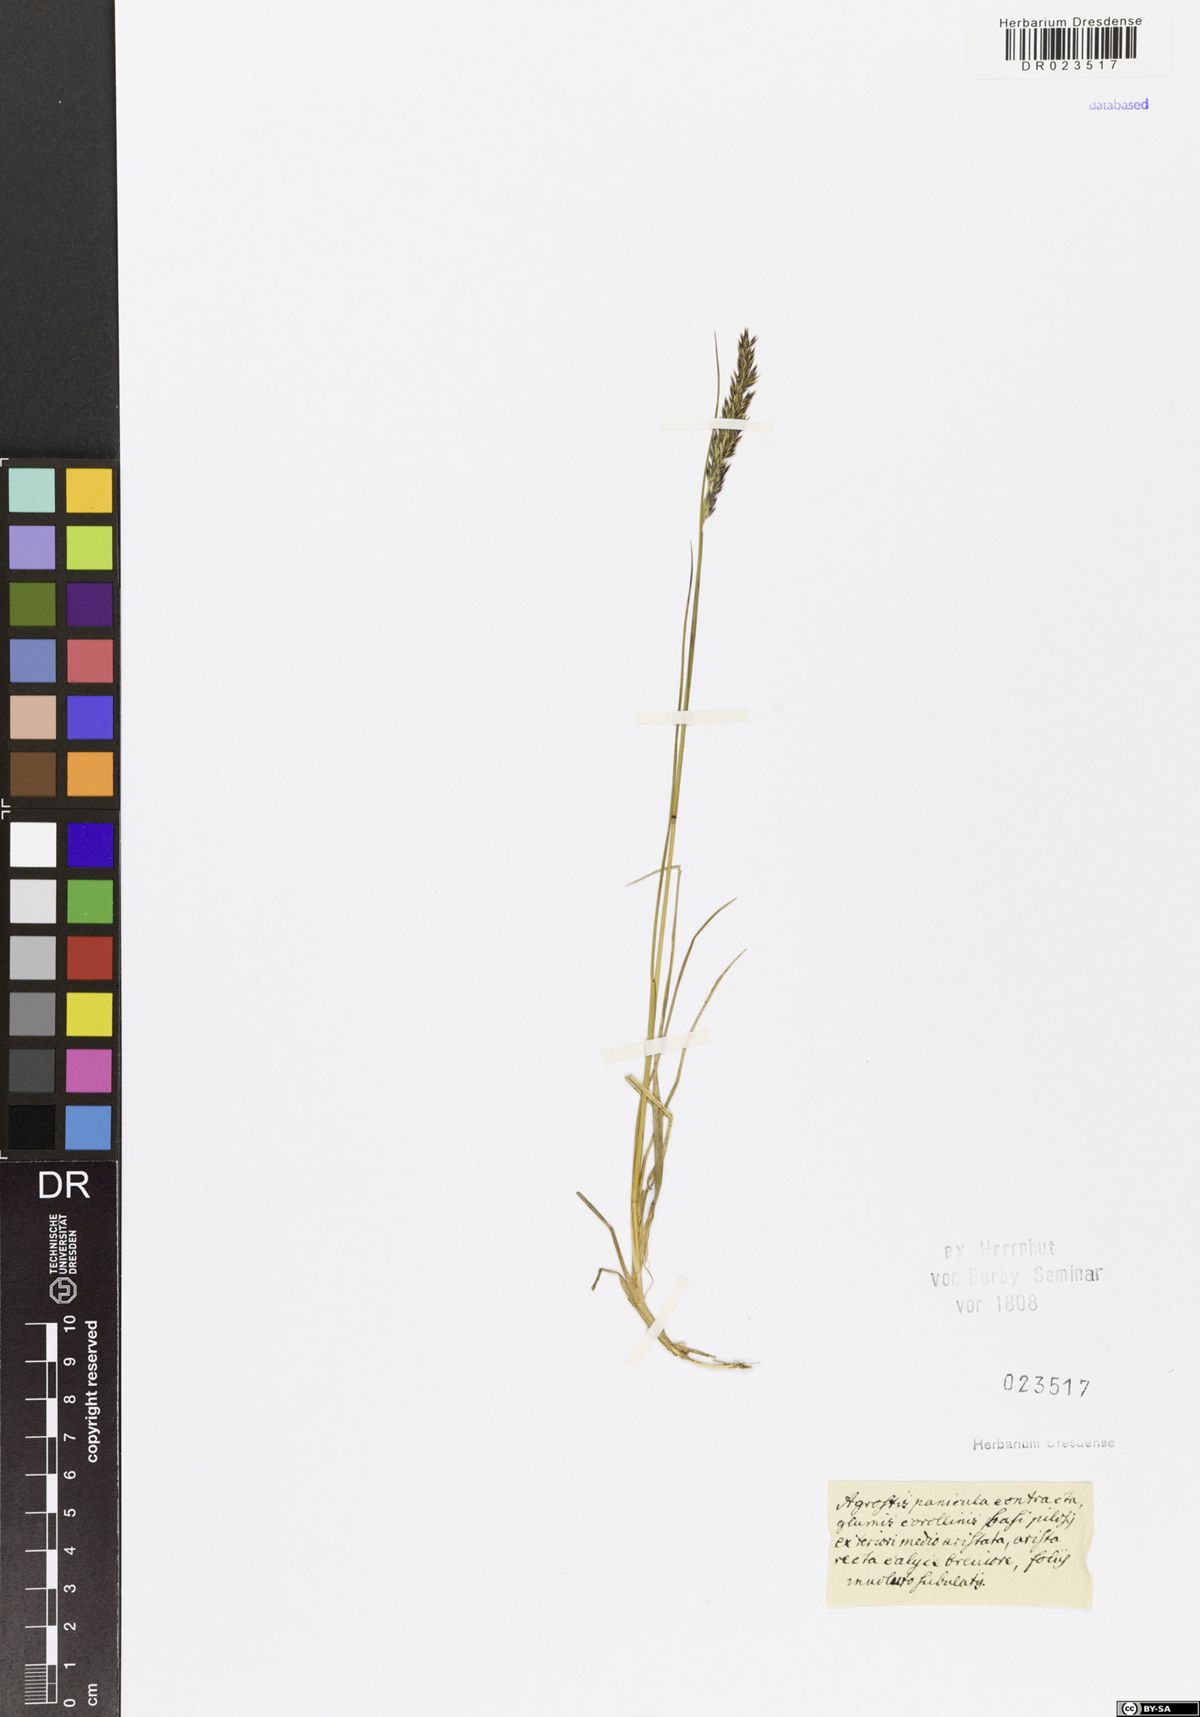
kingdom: Plantae
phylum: Tracheophyta
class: Liliopsida
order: Poales
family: Poaceae
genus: Agrostis
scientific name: Agrostis
